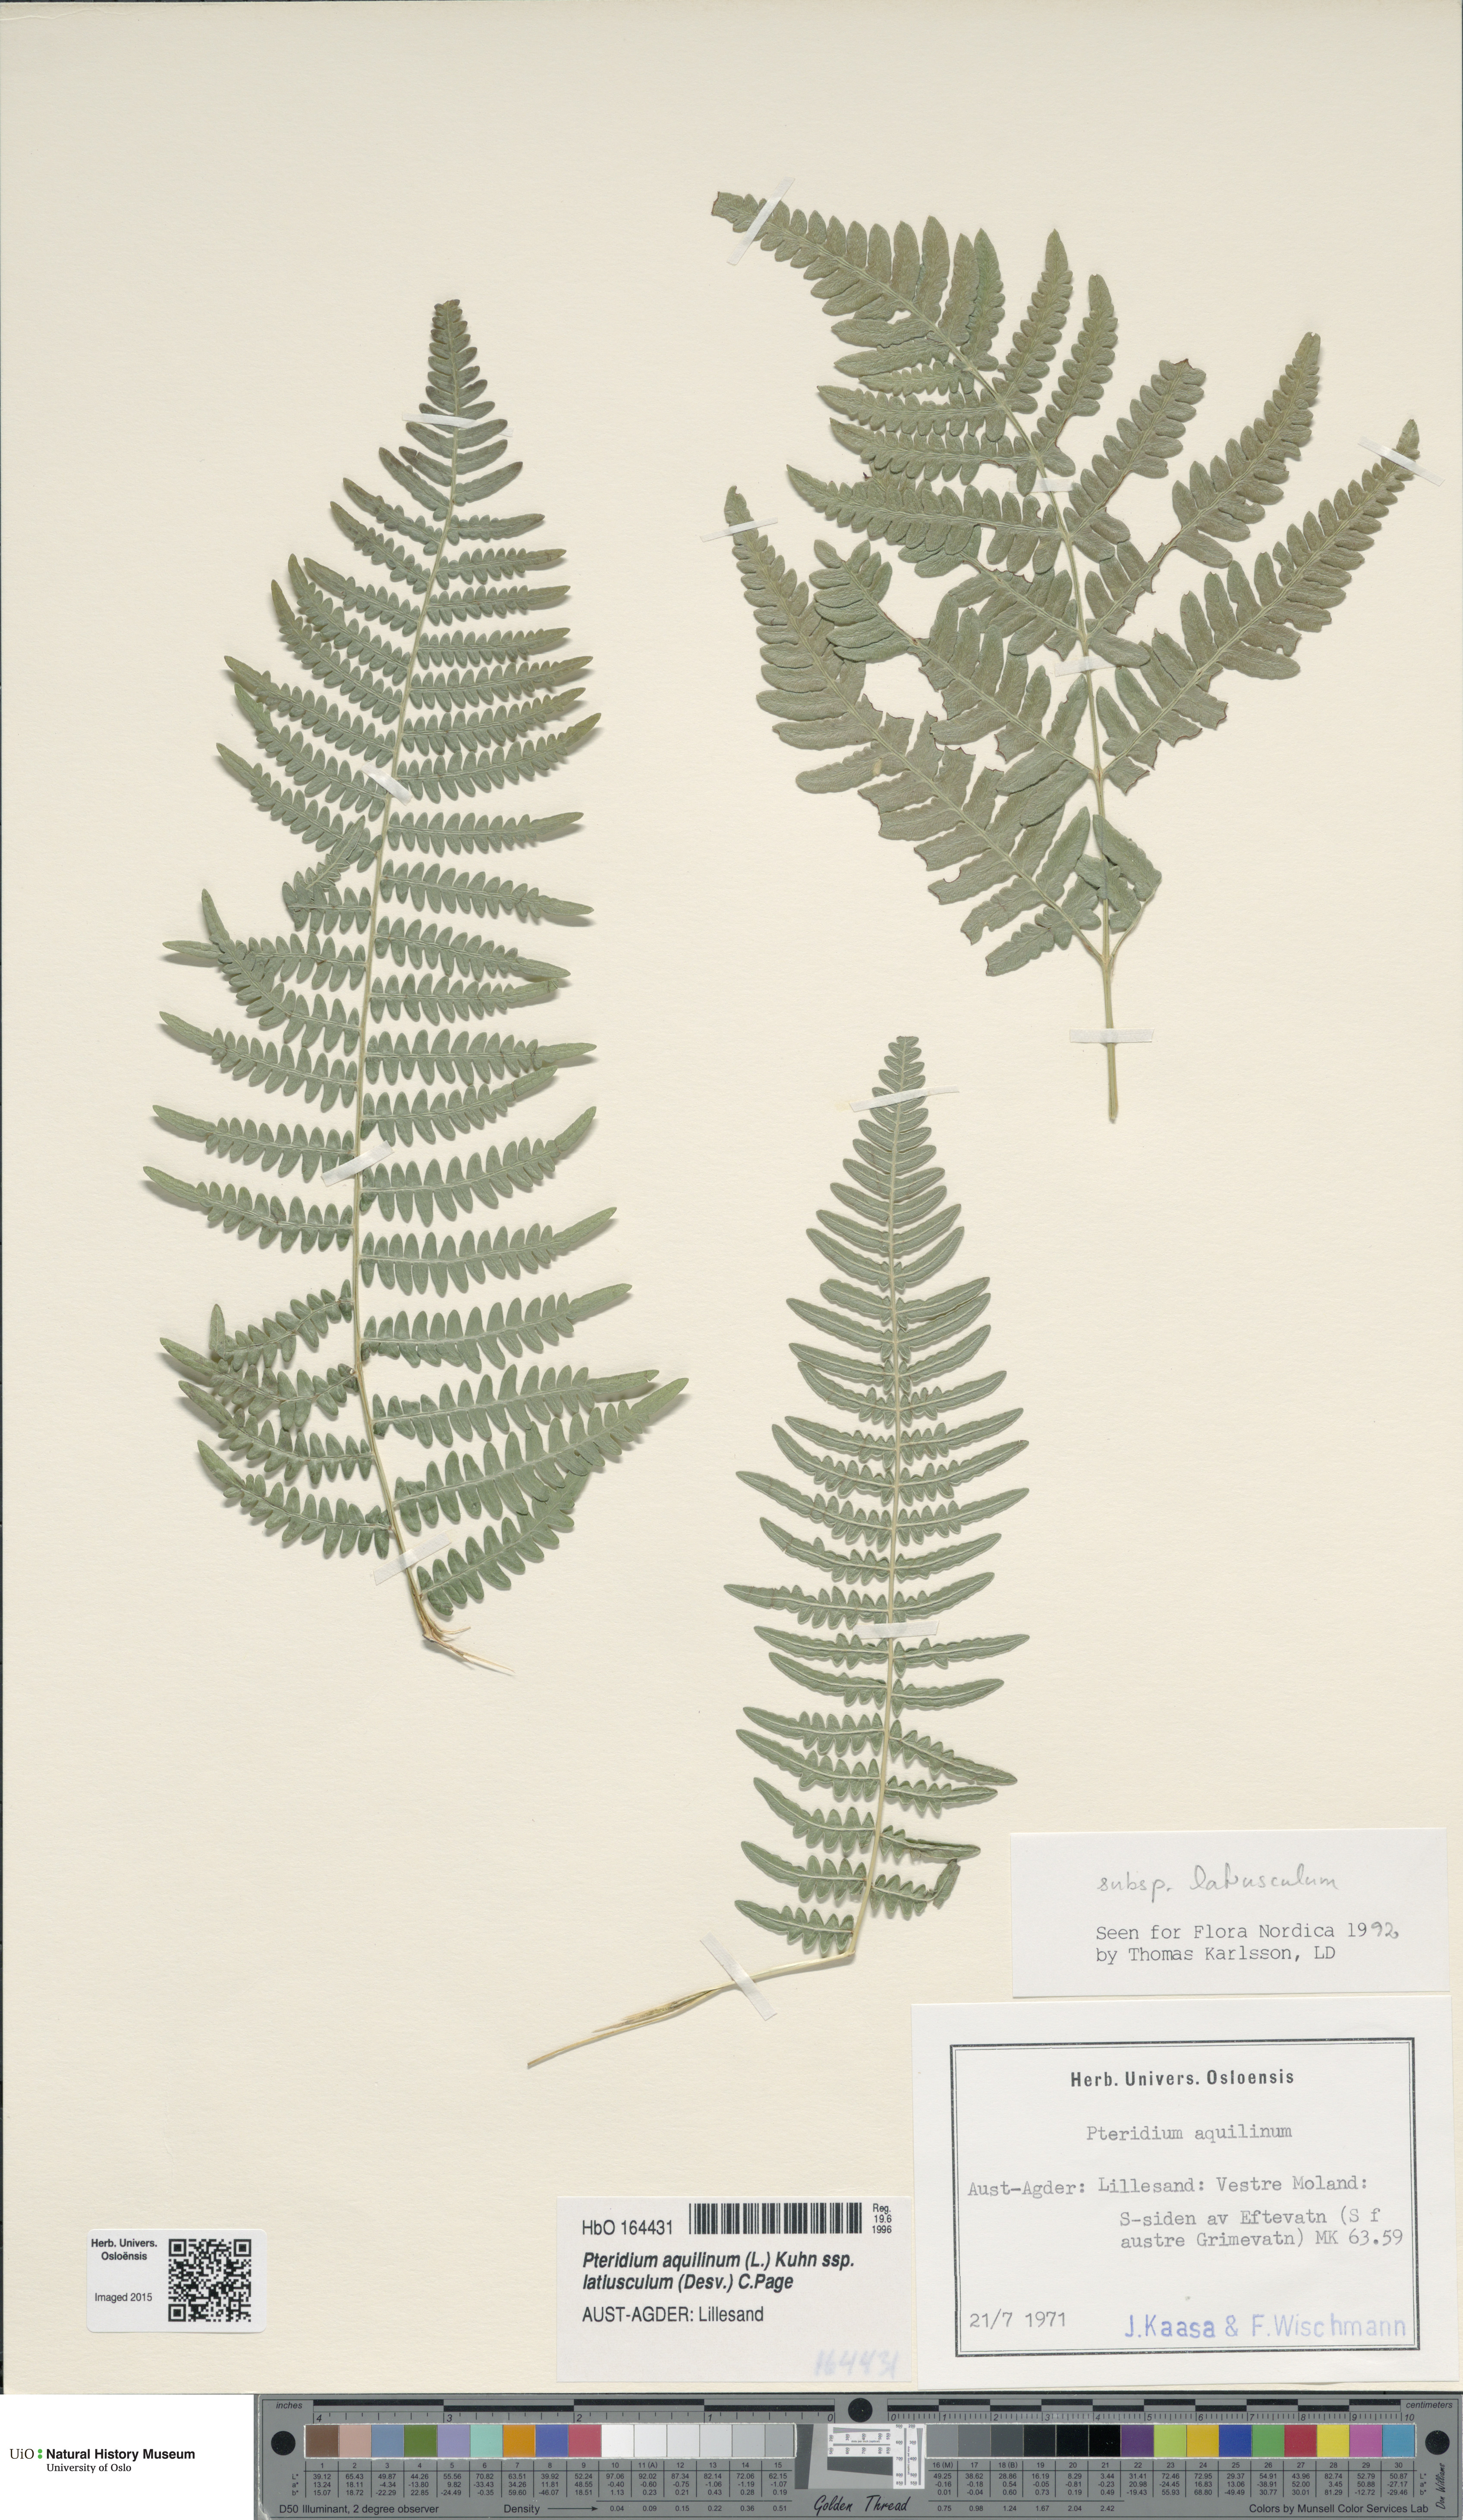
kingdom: Plantae
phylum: Tracheophyta
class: Polypodiopsida
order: Polypodiales
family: Dennstaedtiaceae
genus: Pteridium
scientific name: Pteridium aquilinum
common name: Bracken
